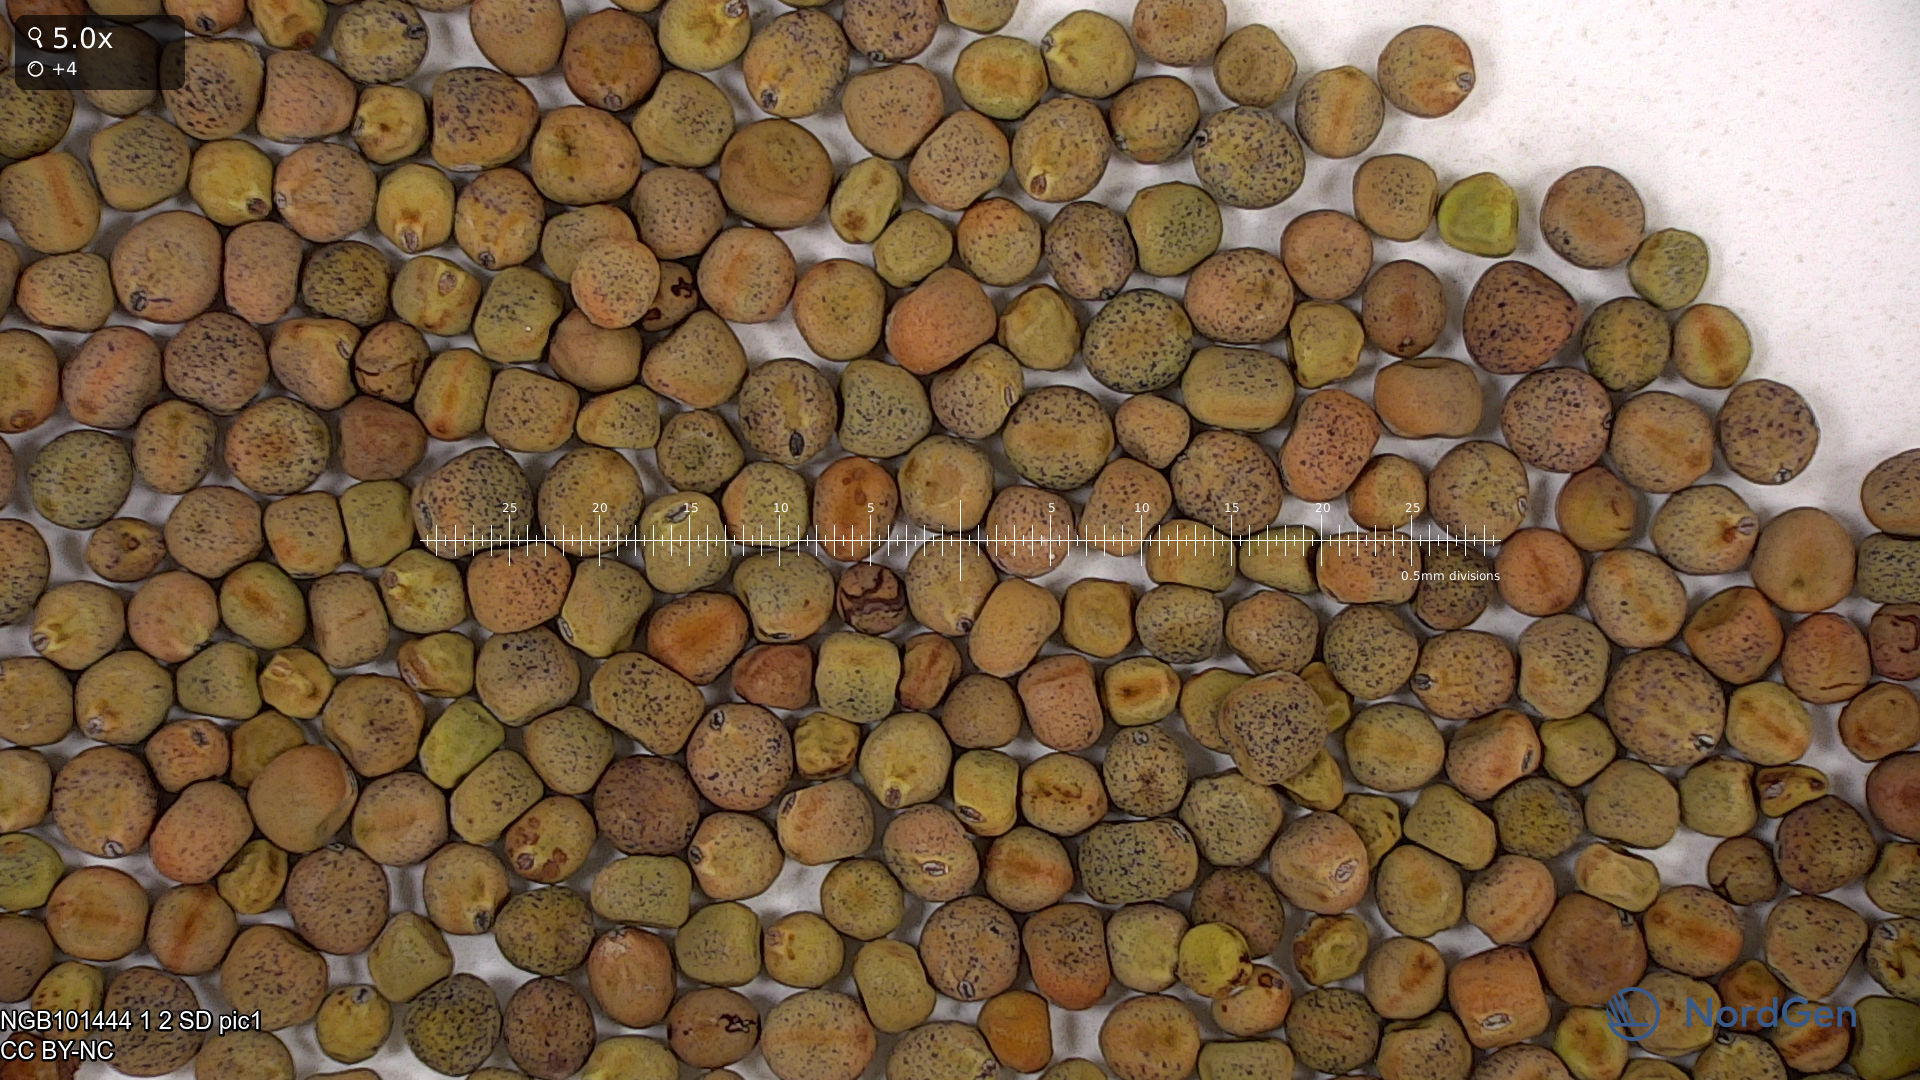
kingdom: Plantae
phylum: Tracheophyta
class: Magnoliopsida
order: Fabales
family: Fabaceae
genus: Lathyrus
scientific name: Lathyrus oleraceus
